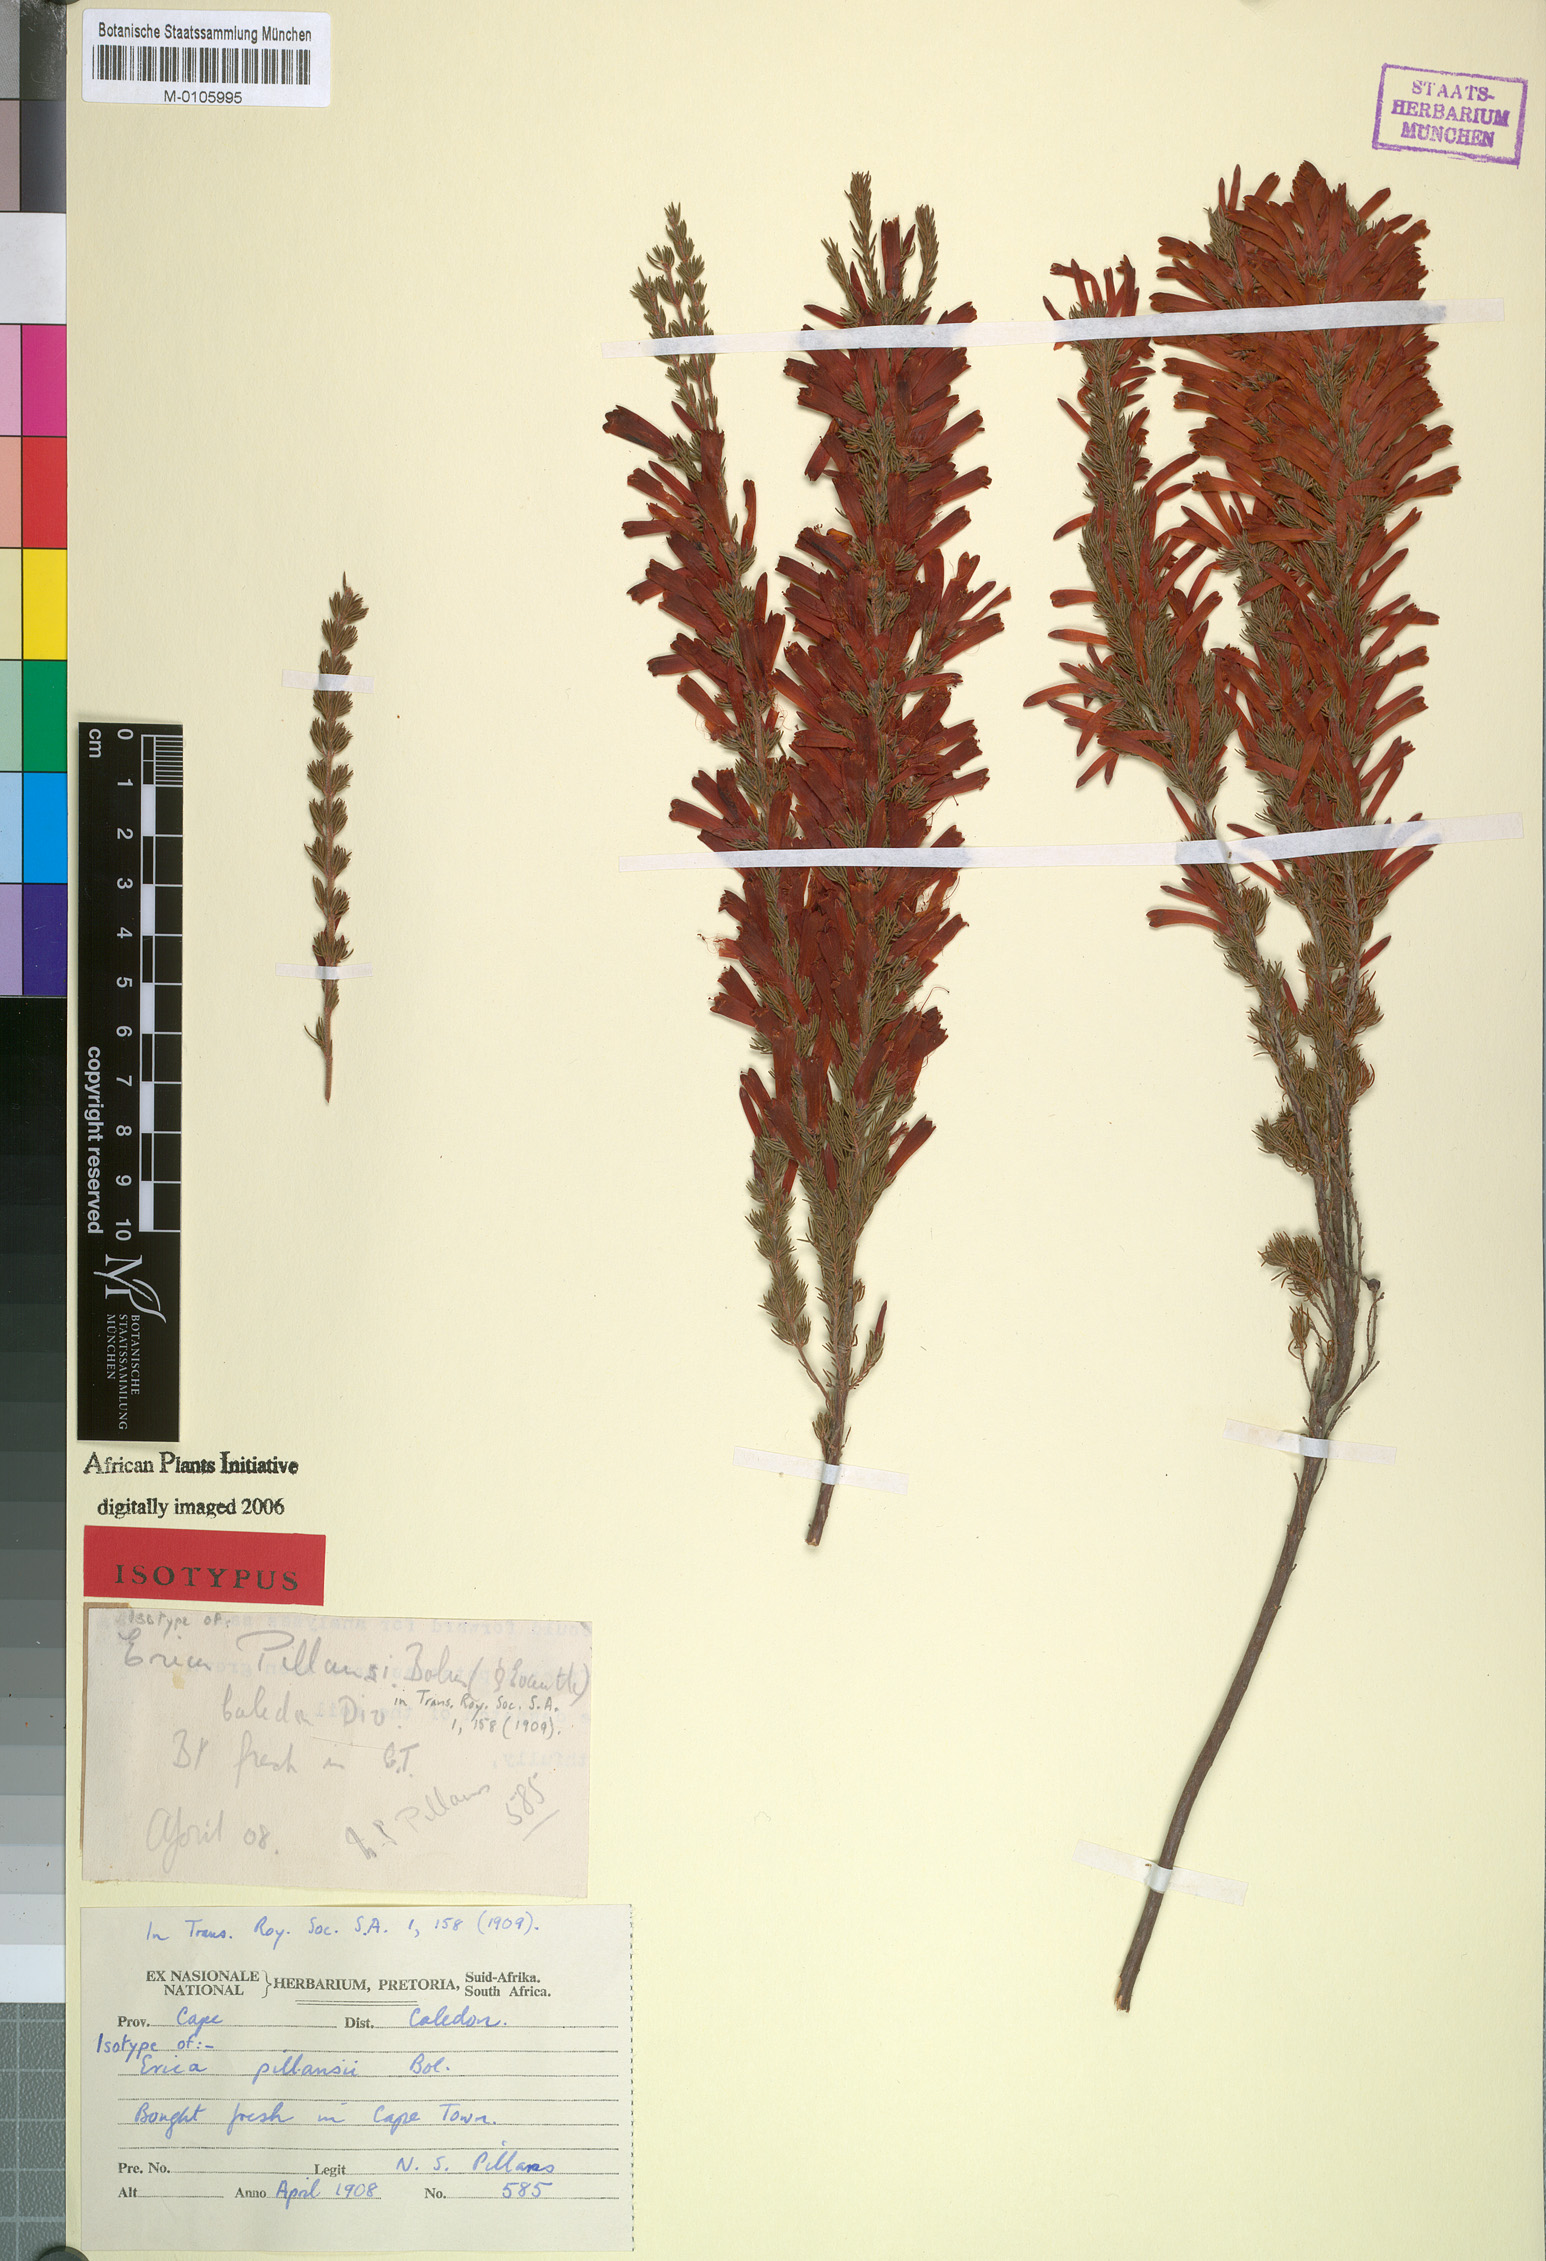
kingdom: Plantae
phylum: Tracheophyta
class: Magnoliopsida
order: Ericales
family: Ericaceae
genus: Erica
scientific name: Erica pillansii
